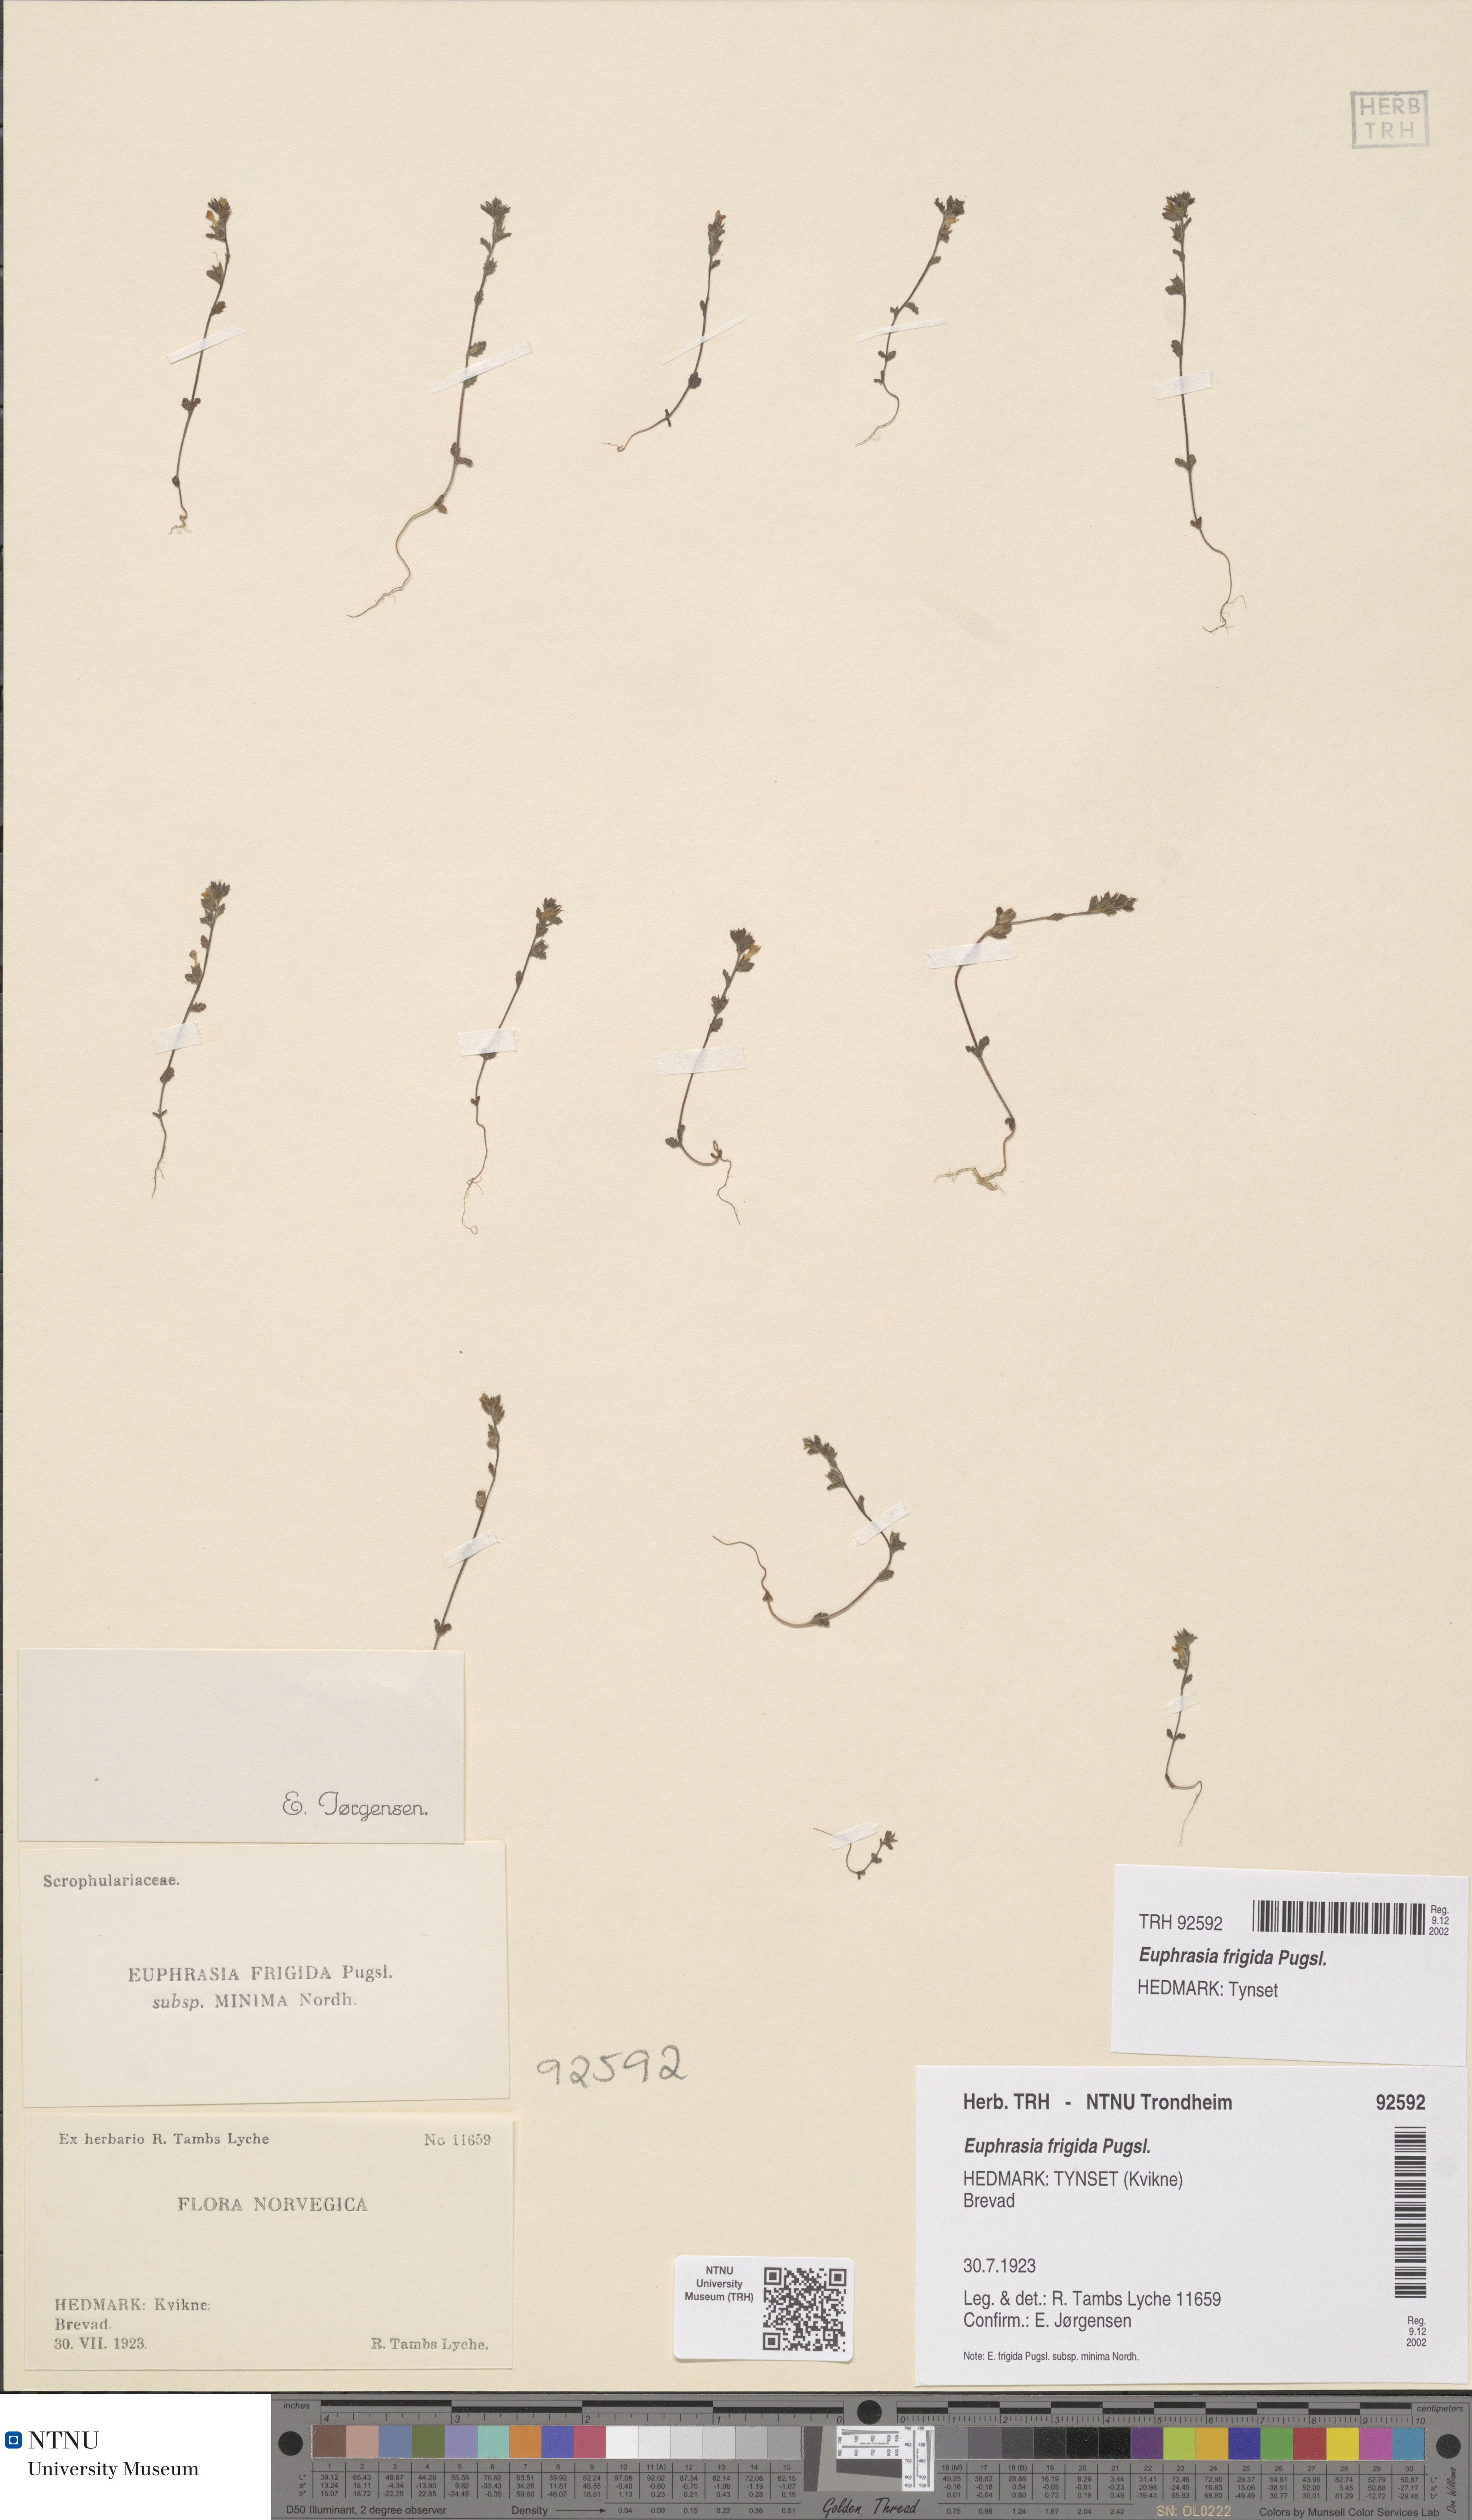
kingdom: Plantae
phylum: Tracheophyta
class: Magnoliopsida
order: Lamiales
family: Orobanchaceae
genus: Euphrasia
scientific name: Euphrasia wettsteinii
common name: Wettstein's eyebright
